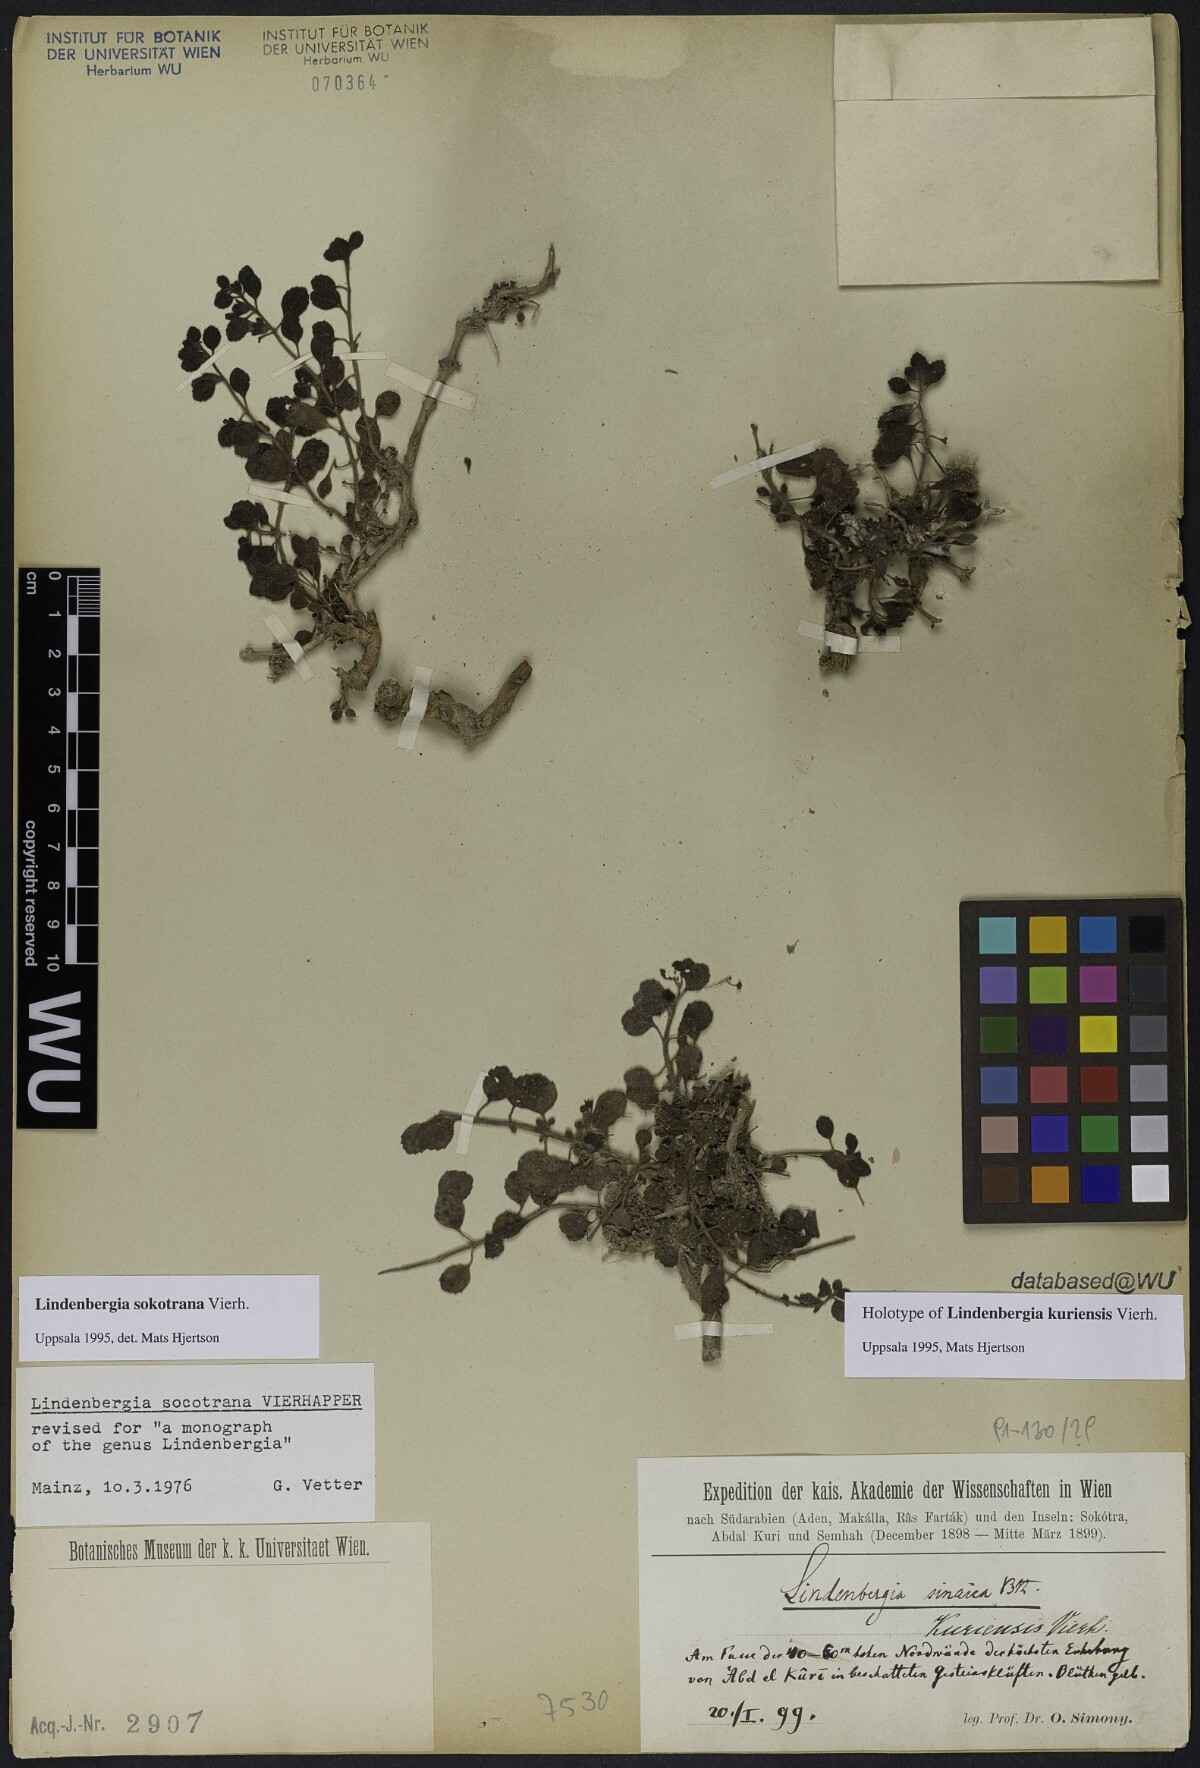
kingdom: Plantae
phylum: Tracheophyta
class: Magnoliopsida
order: Lamiales
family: Orobanchaceae
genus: Lindenbergia
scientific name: Lindenbergia sokotrana
